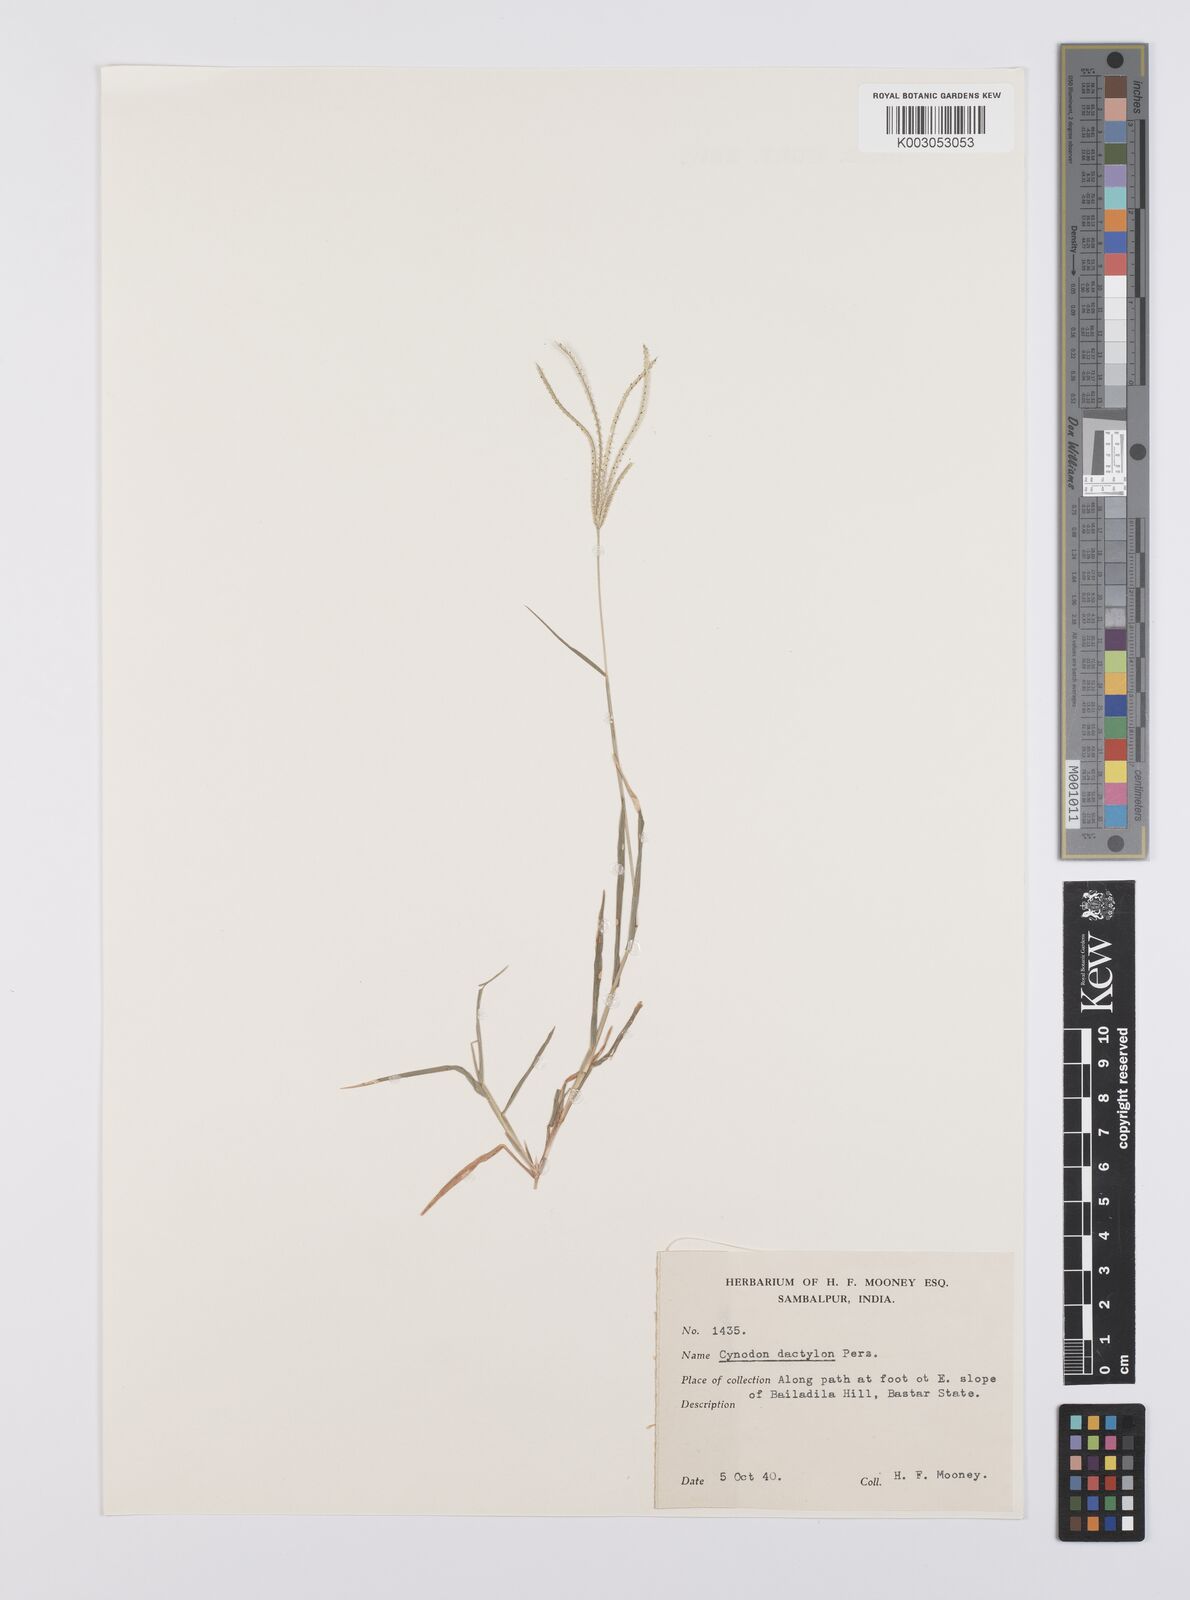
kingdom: Plantae
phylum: Tracheophyta
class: Liliopsida
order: Poales
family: Poaceae
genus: Cynodon
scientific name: Cynodon radiatus
